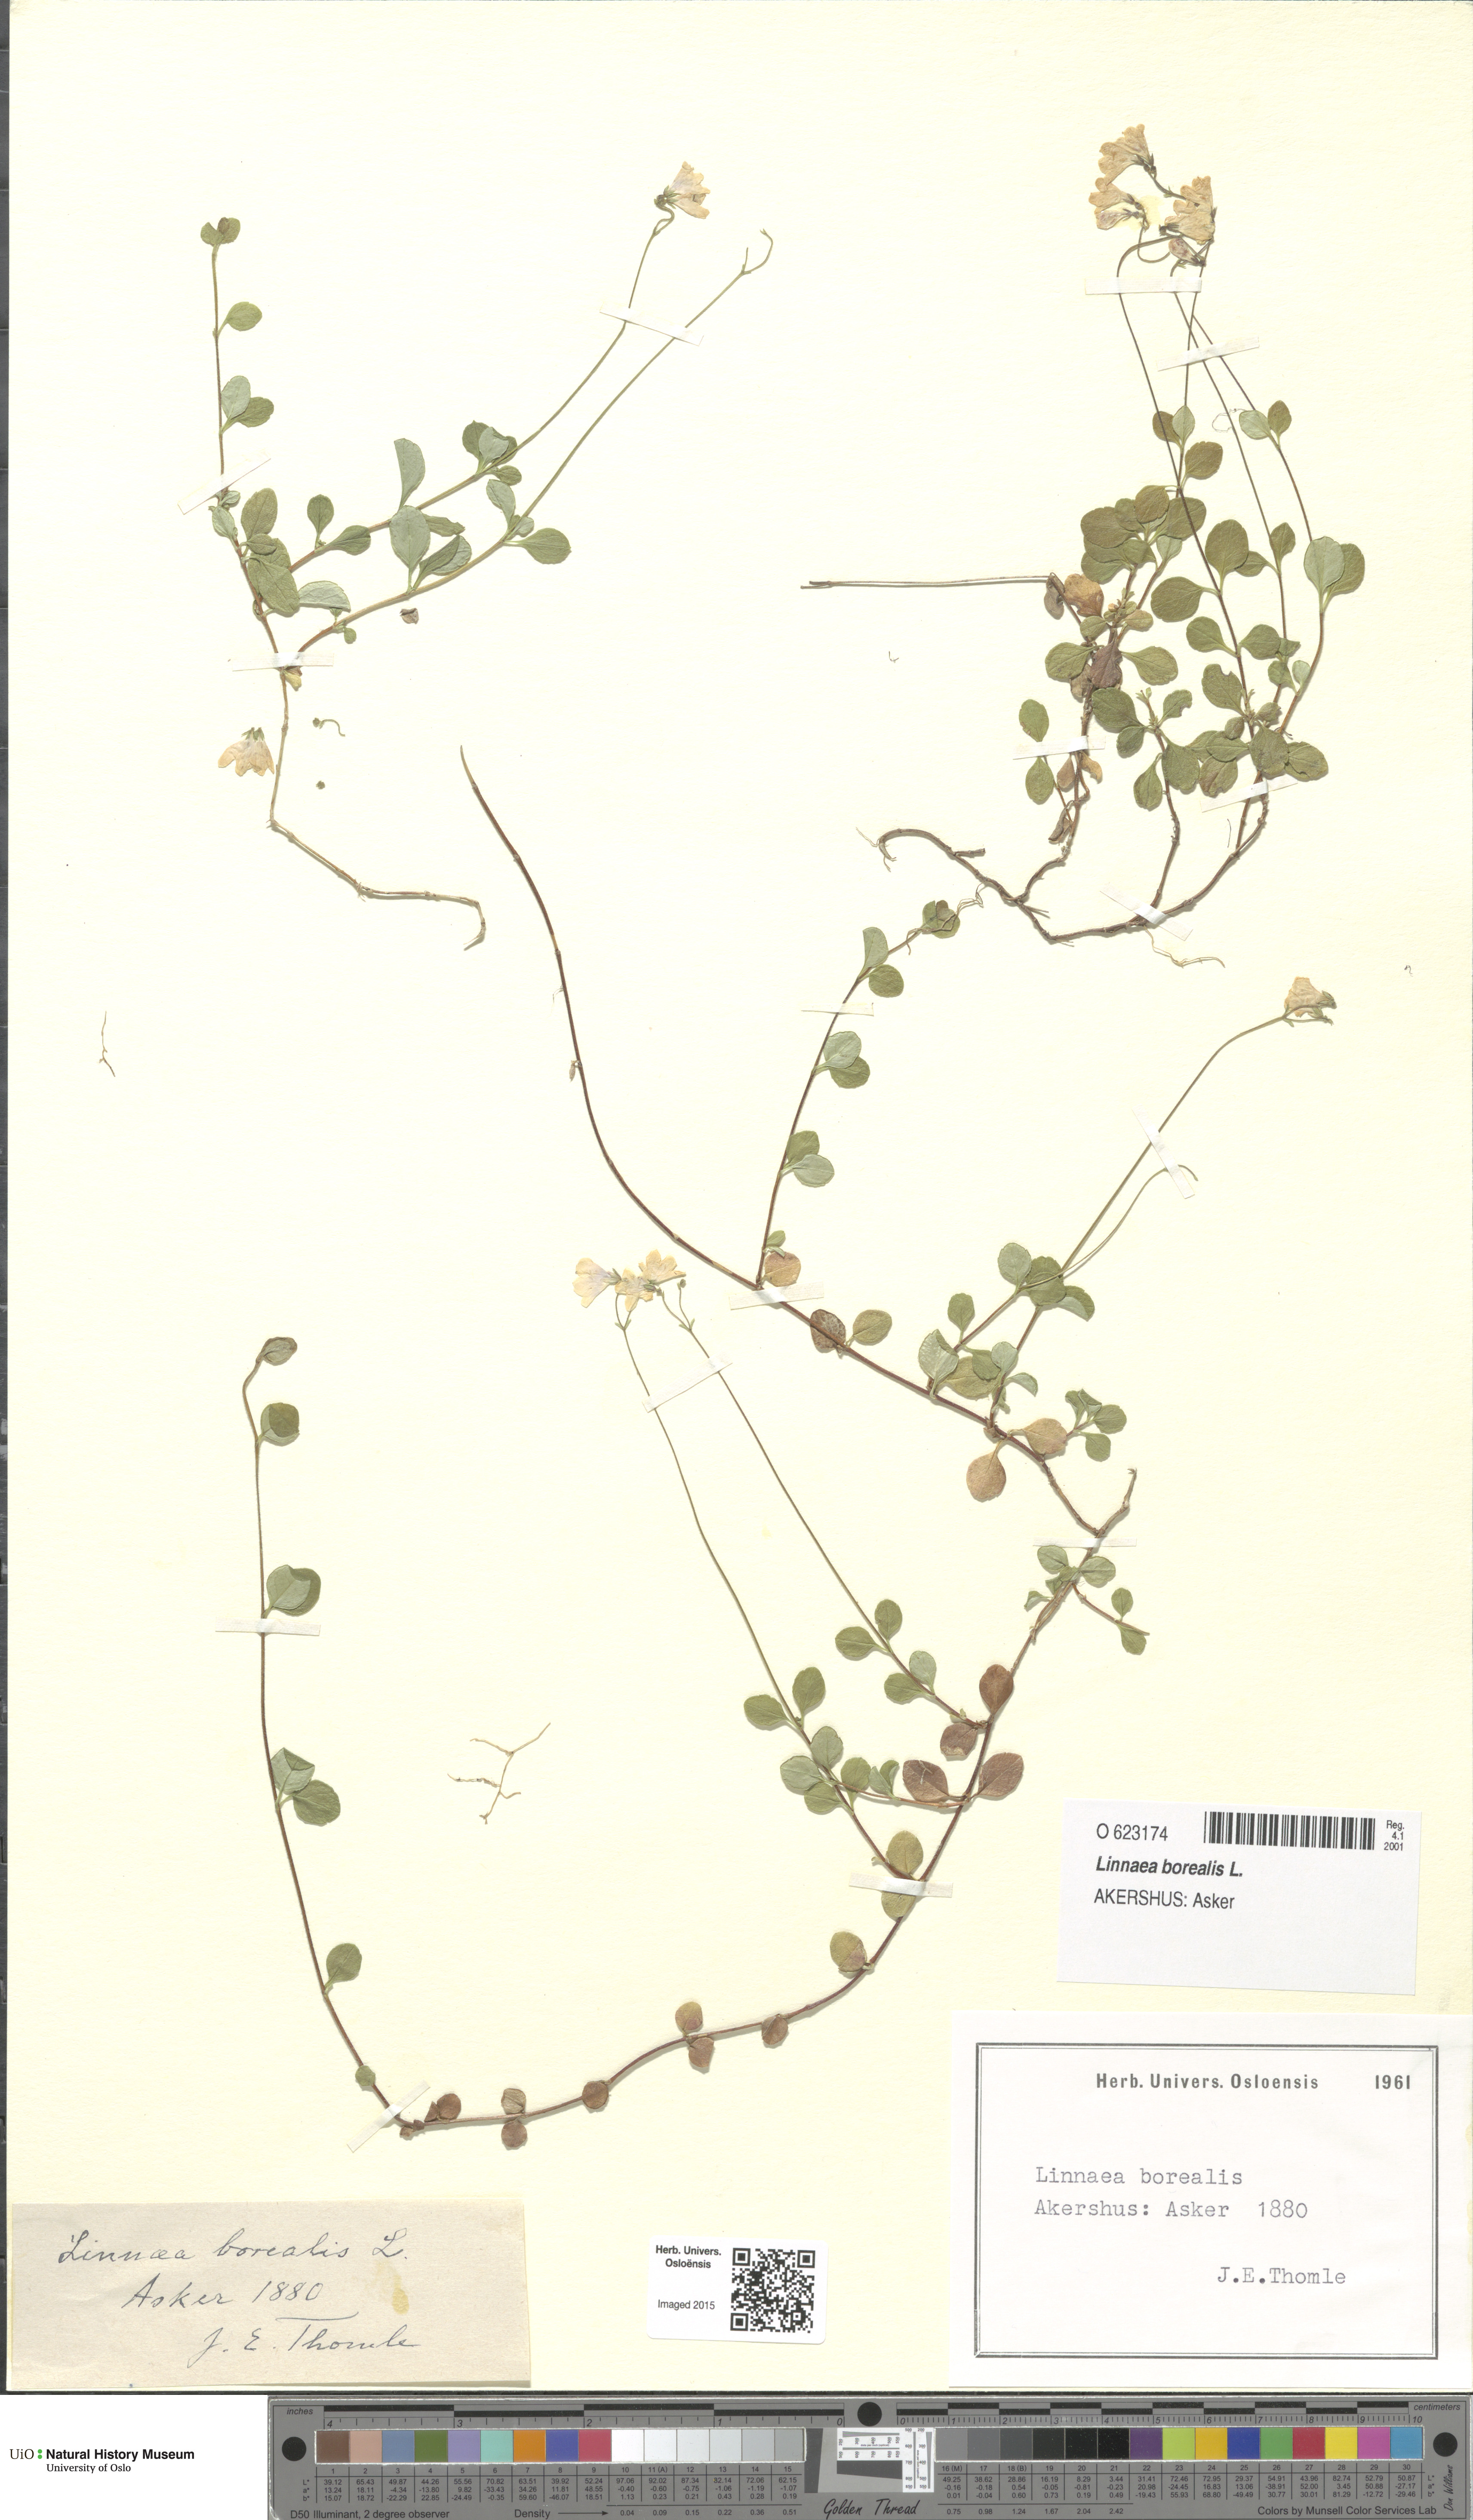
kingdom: Plantae
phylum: Tracheophyta
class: Magnoliopsida
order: Dipsacales
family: Caprifoliaceae
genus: Linnaea
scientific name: Linnaea borealis
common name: Twinflower
